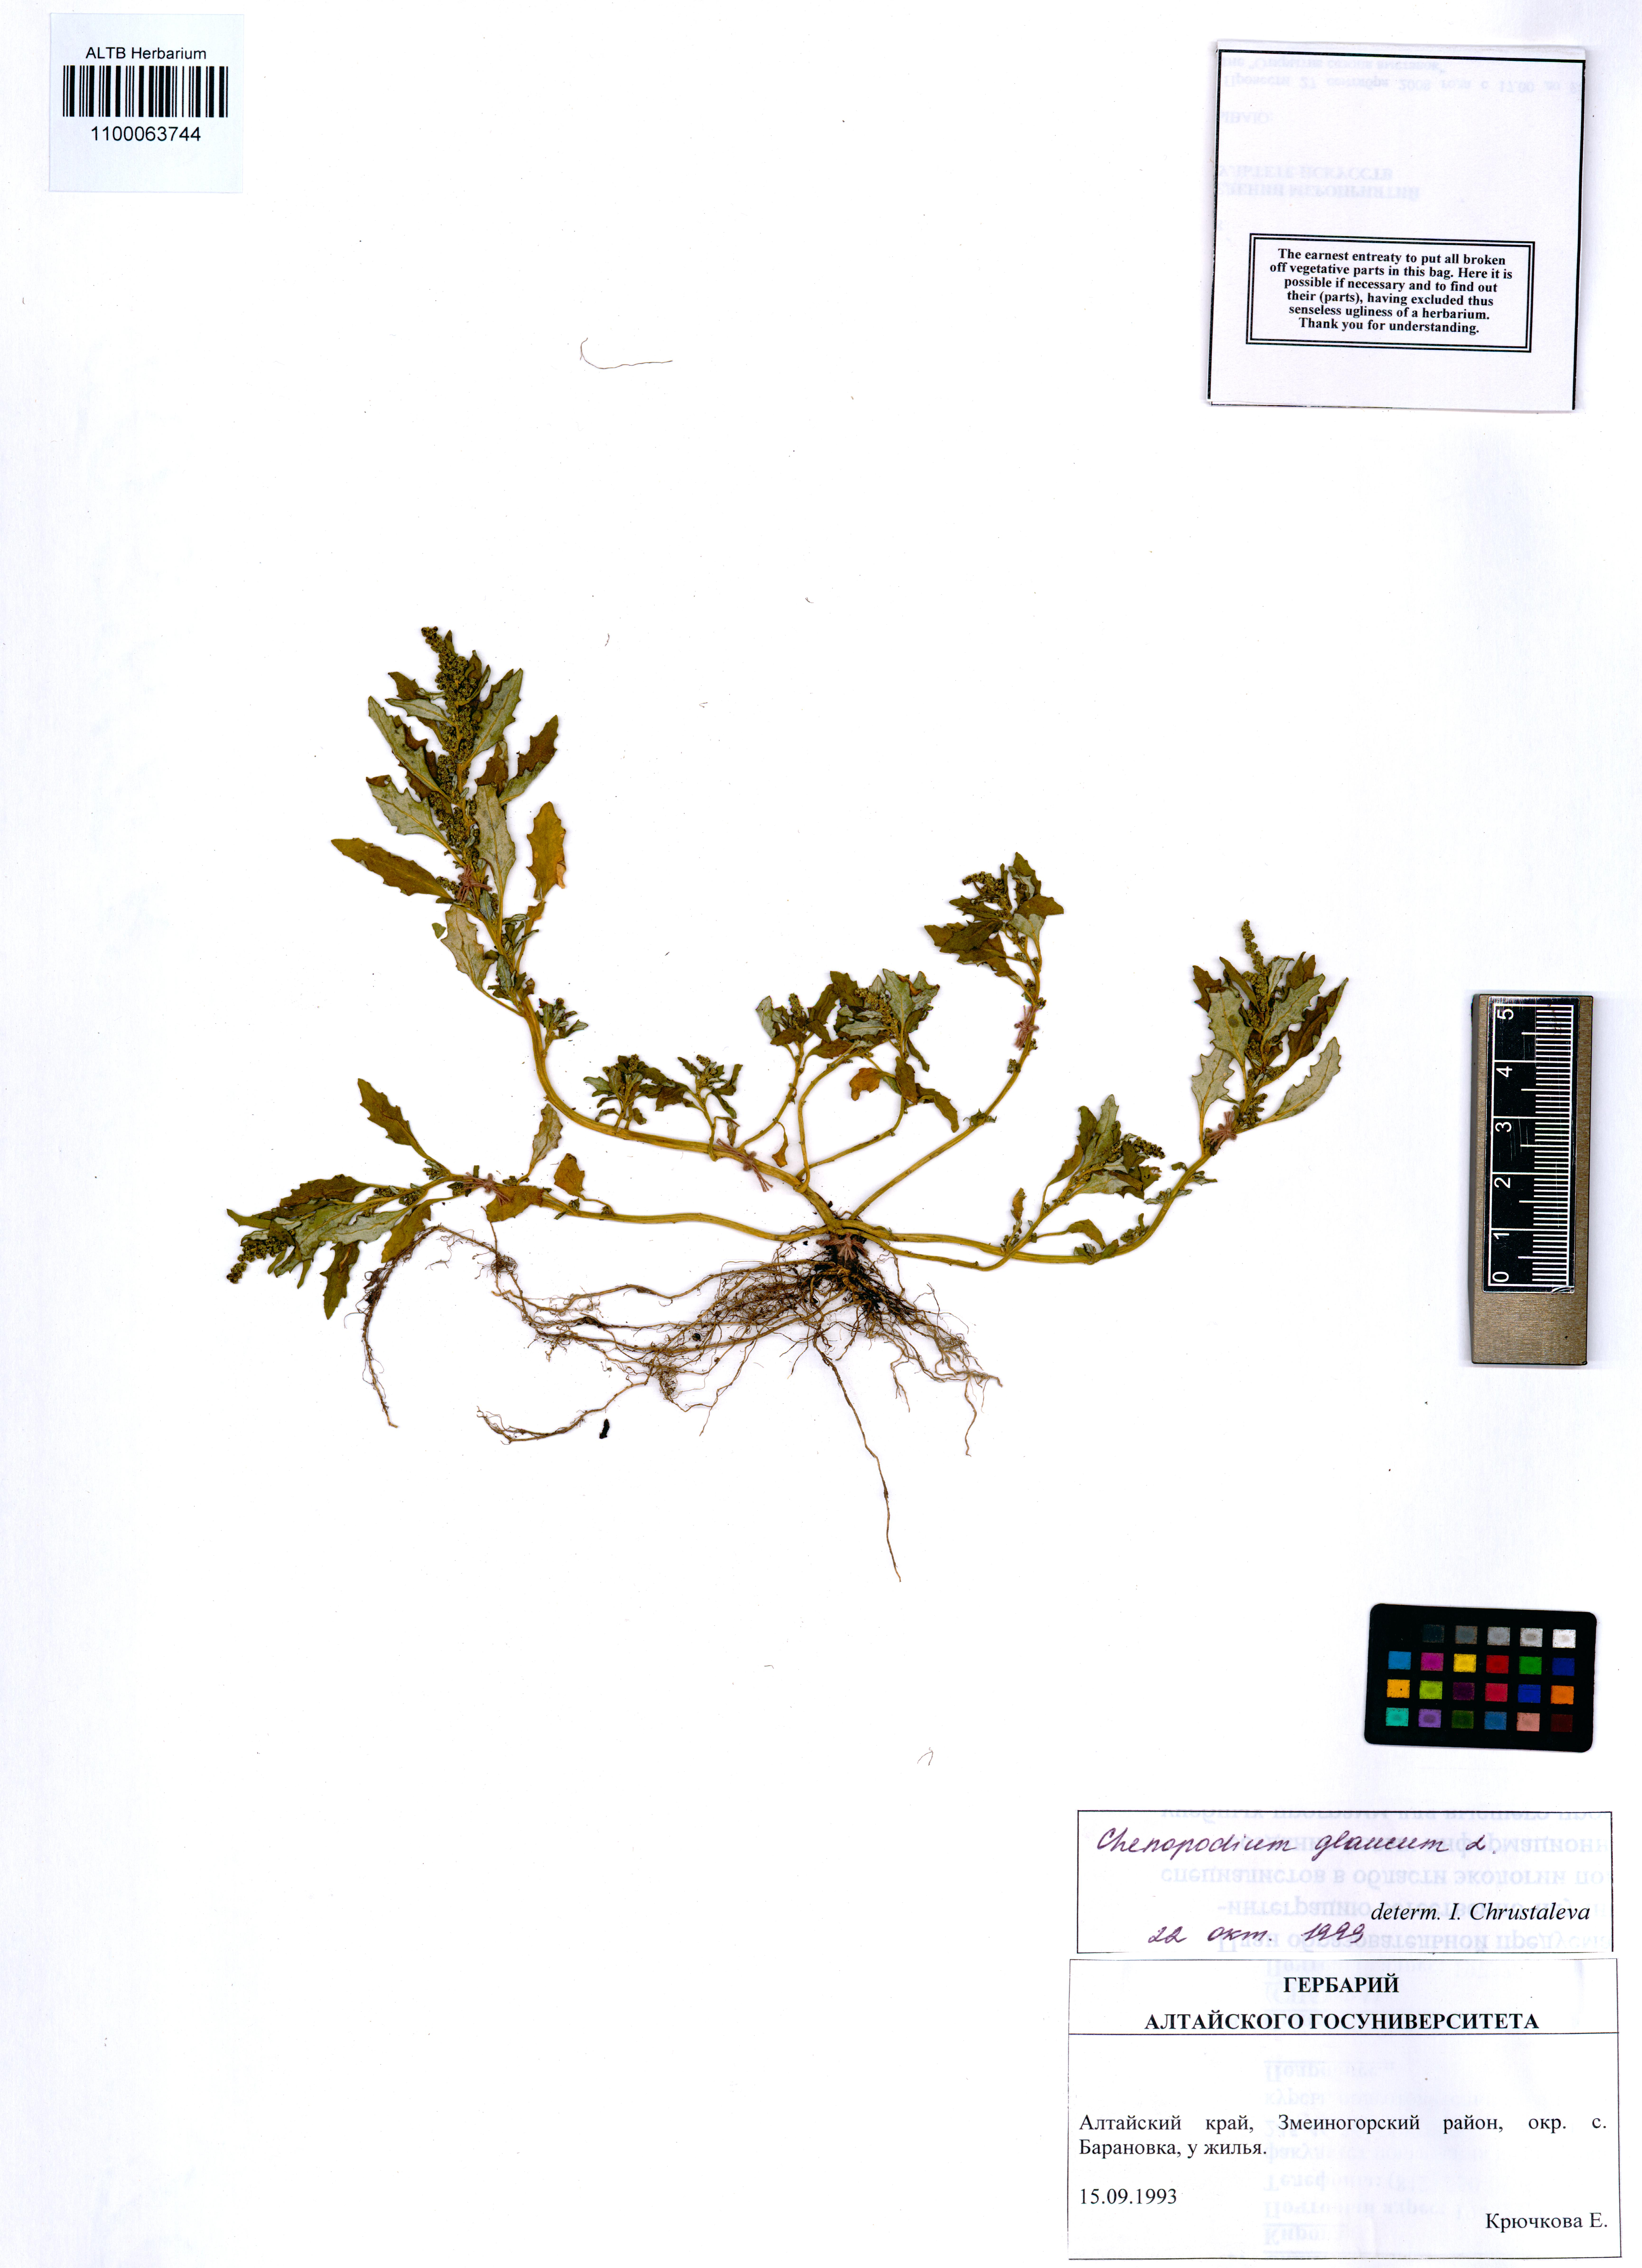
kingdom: Plantae
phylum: Tracheophyta
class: Magnoliopsida
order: Caryophyllales
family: Amaranthaceae
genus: Oxybasis
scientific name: Oxybasis glauca
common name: Glaucous goosefoot
